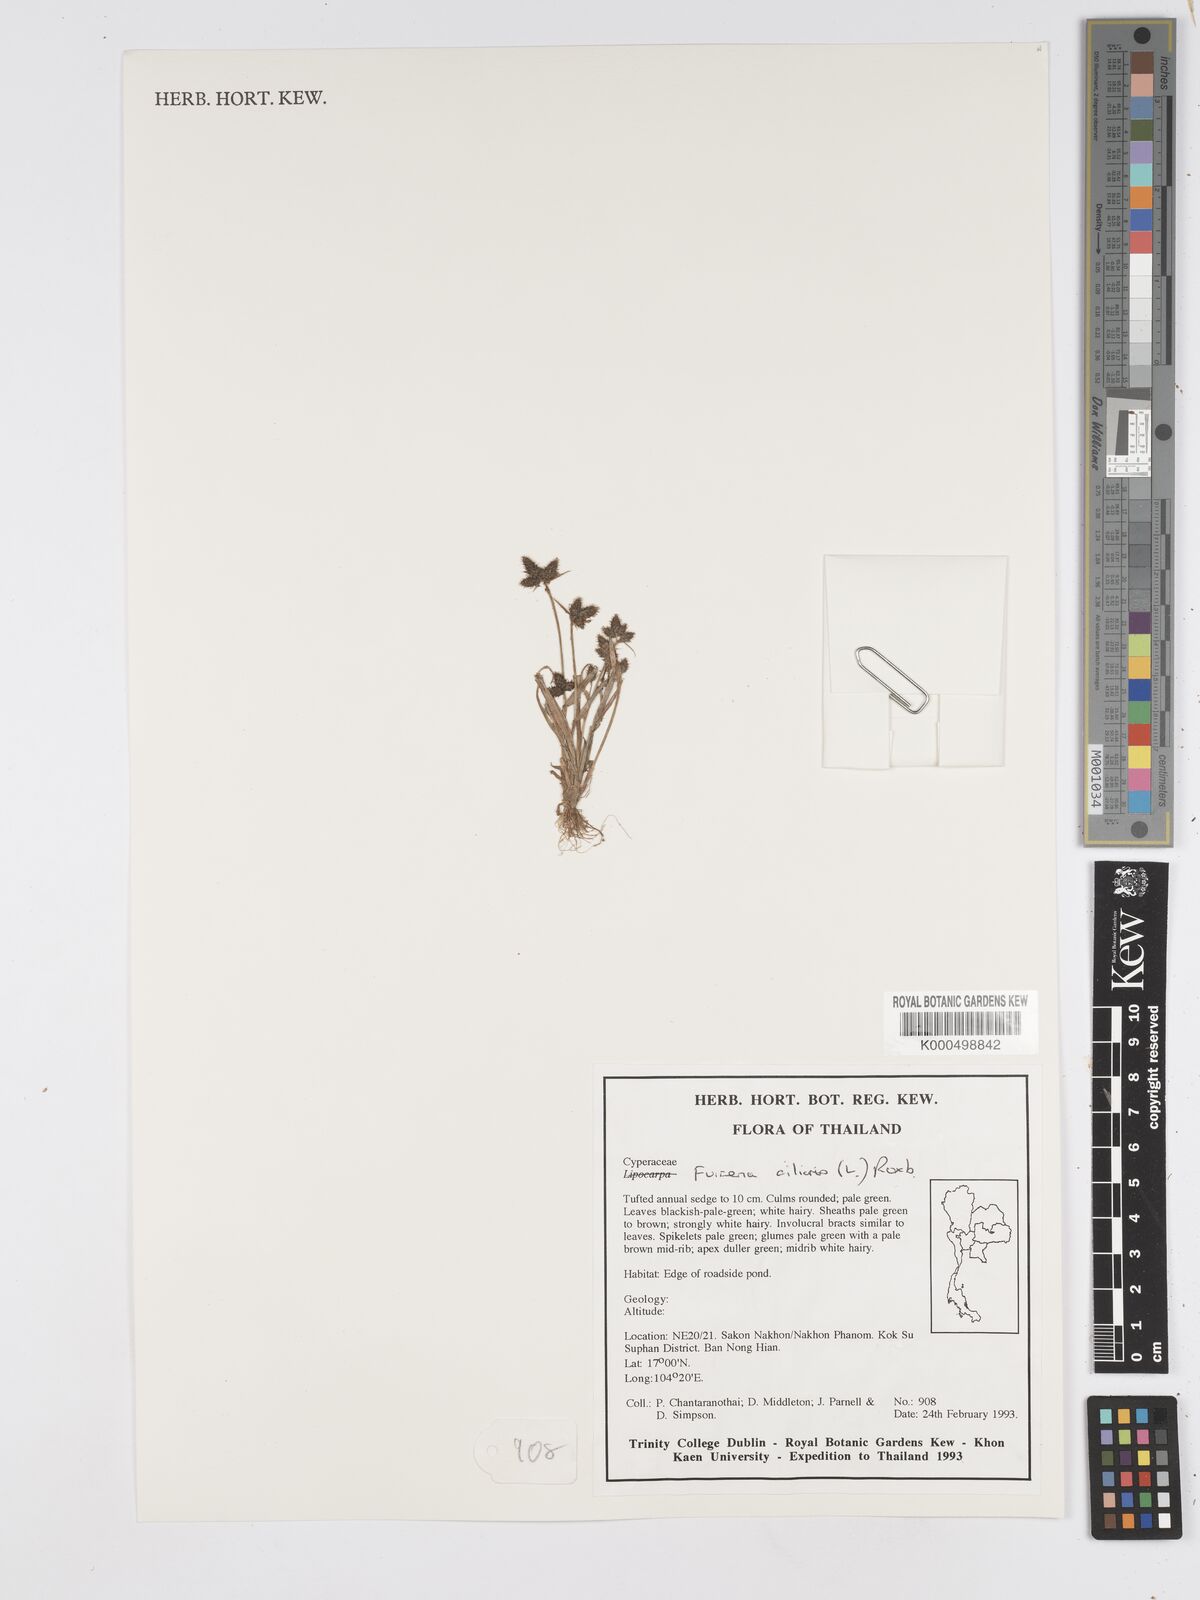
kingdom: Plantae
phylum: Tracheophyta
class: Liliopsida
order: Poales
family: Cyperaceae
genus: Fuirena
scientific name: Fuirena ciliaris
